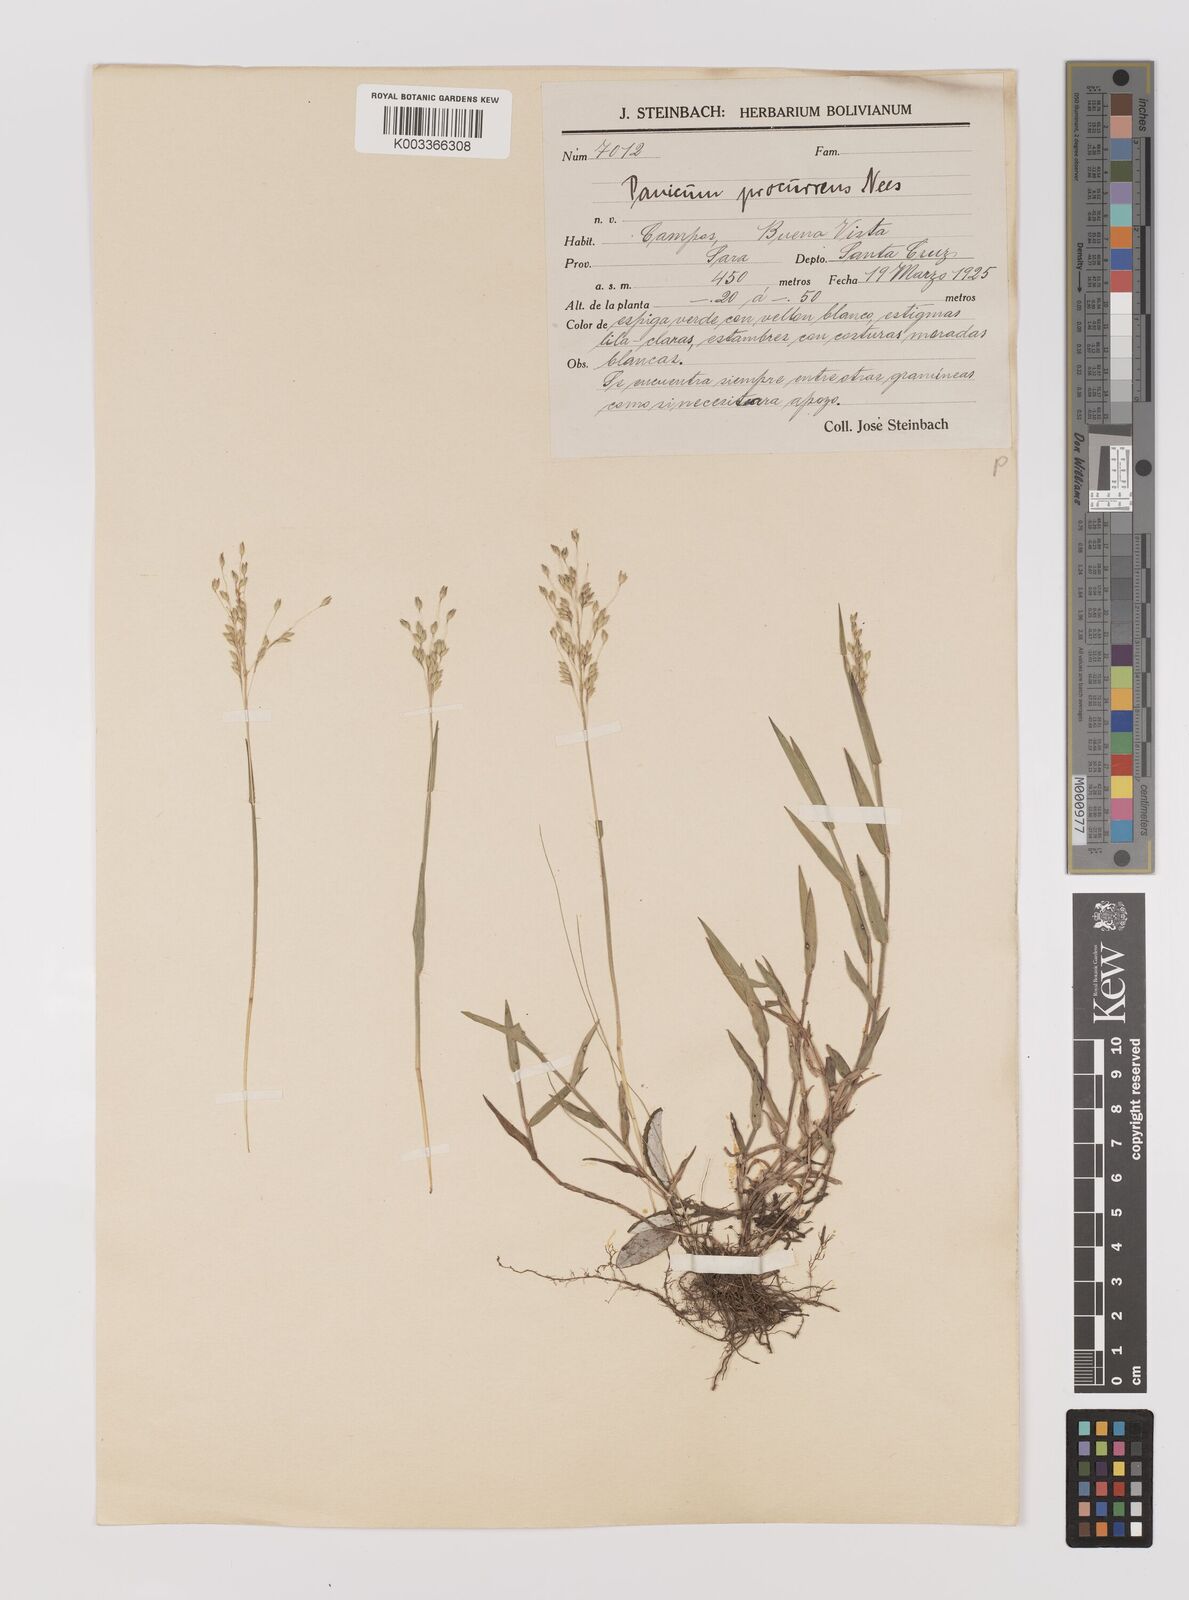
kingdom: Plantae
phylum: Tracheophyta
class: Liliopsida
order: Poales
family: Poaceae
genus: Oedochloa
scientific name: Oedochloa procurrens
